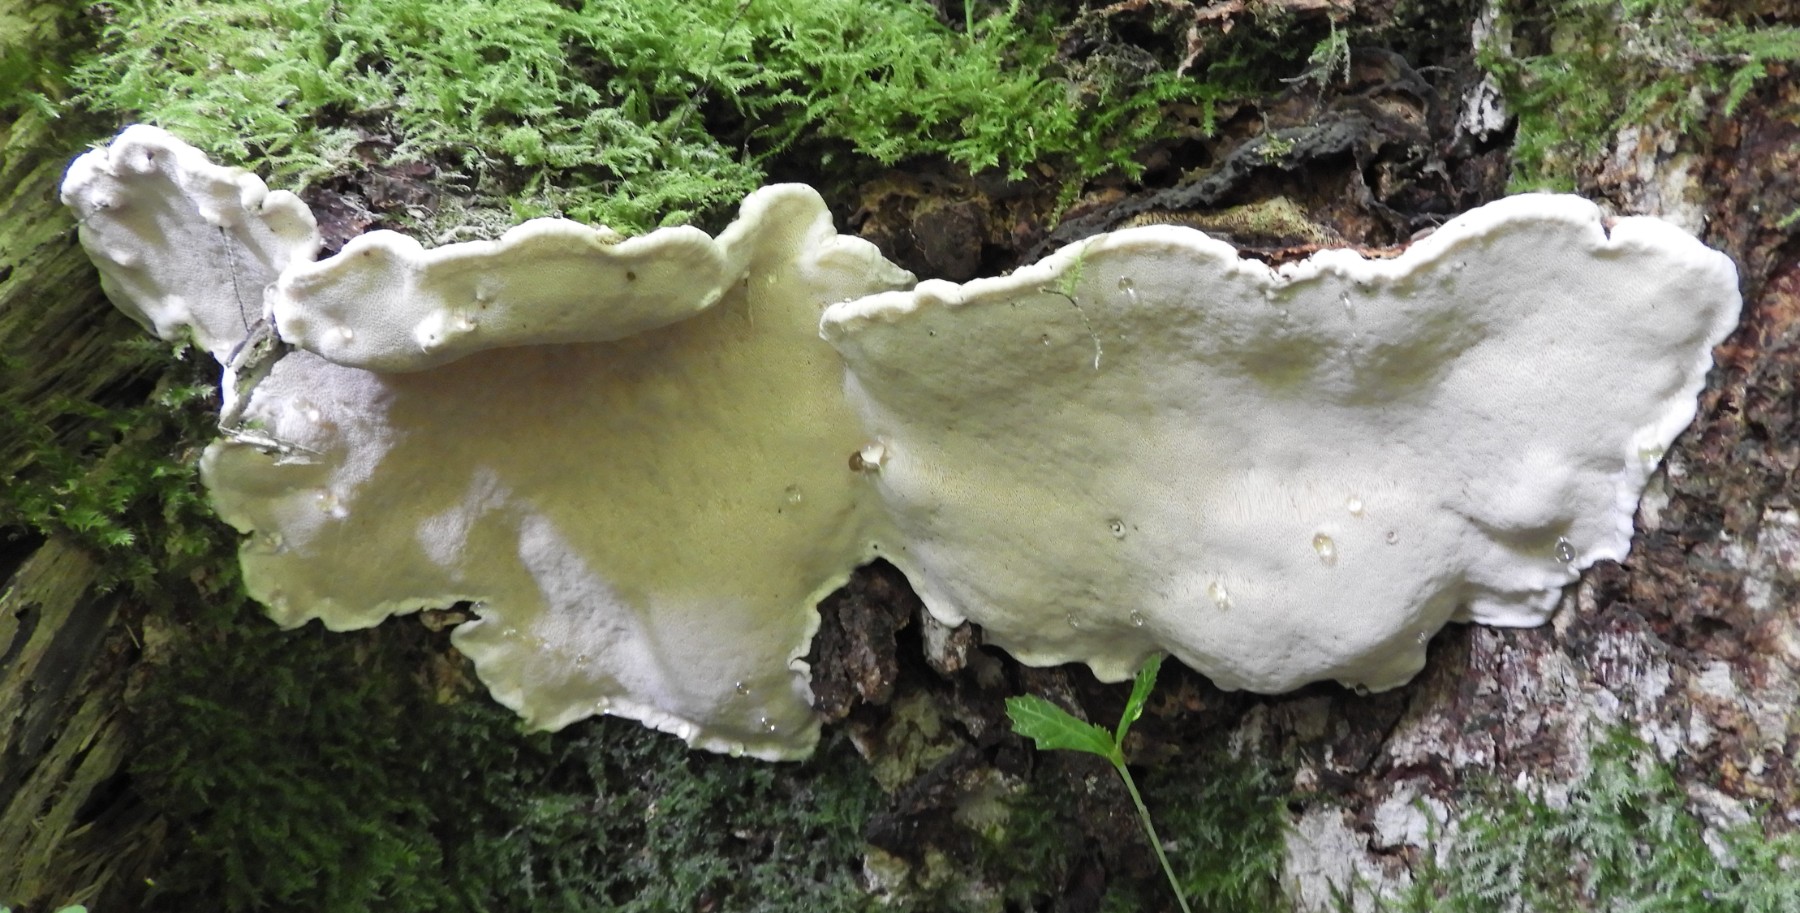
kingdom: Fungi
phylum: Basidiomycota
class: Agaricomycetes
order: Russulales
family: Bondarzewiaceae
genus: Heterobasidion
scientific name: Heterobasidion annosum
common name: almindelig rodfordærver
